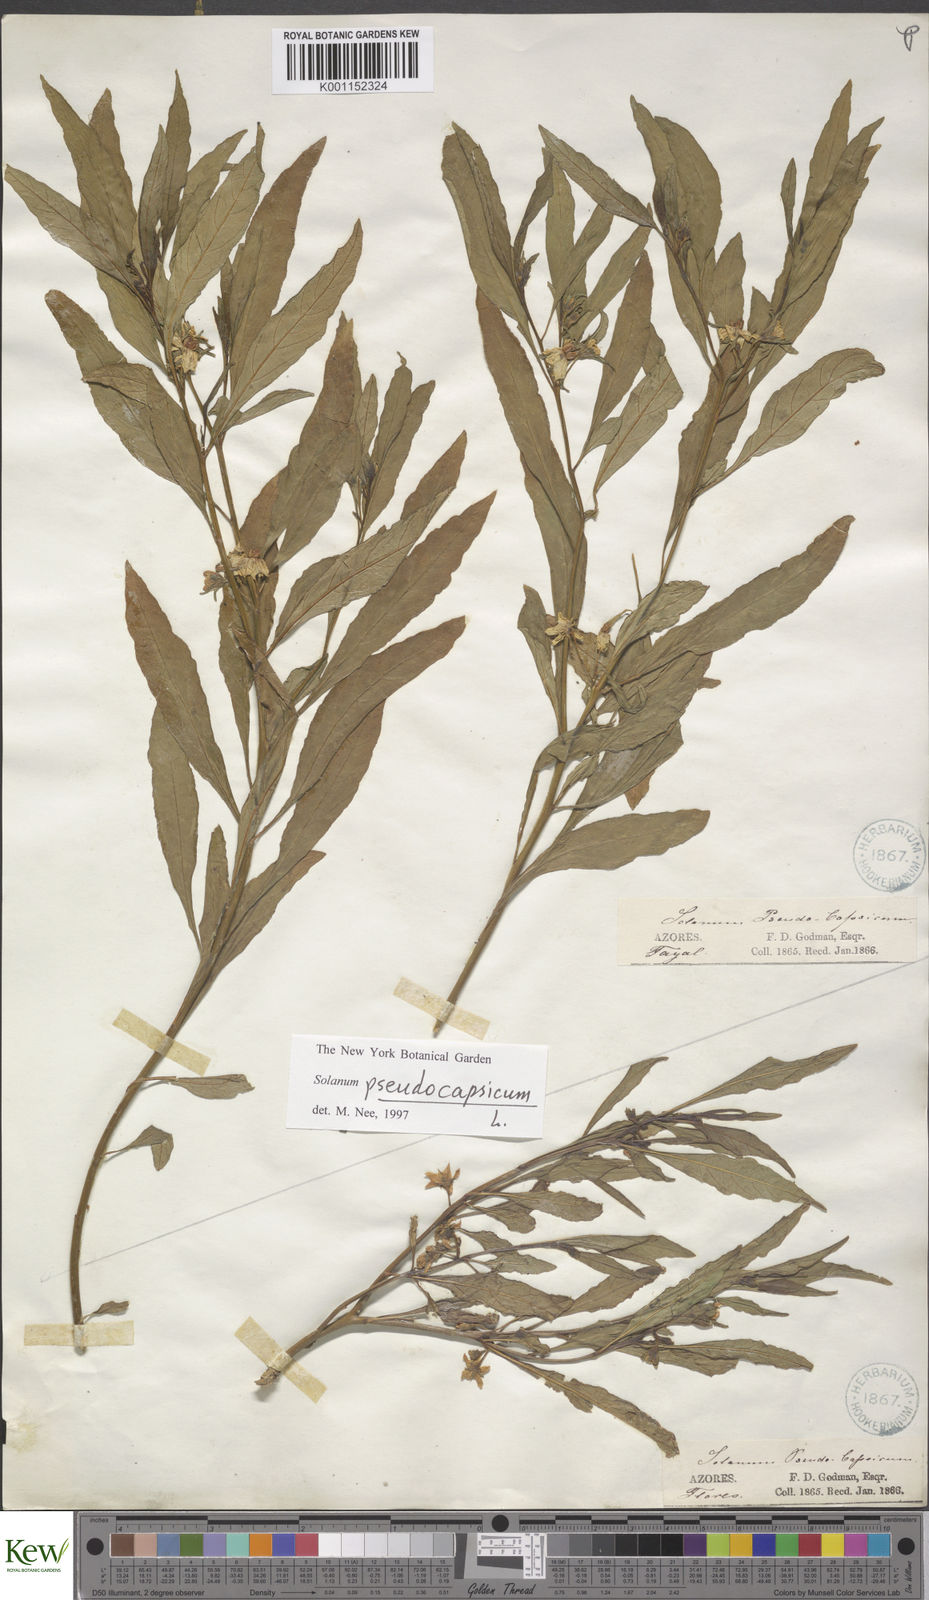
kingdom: Plantae
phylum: Tracheophyta
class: Magnoliopsida
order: Solanales
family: Solanaceae
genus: Solanum
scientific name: Solanum pseudocapsicum
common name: Jerusalem cherry
